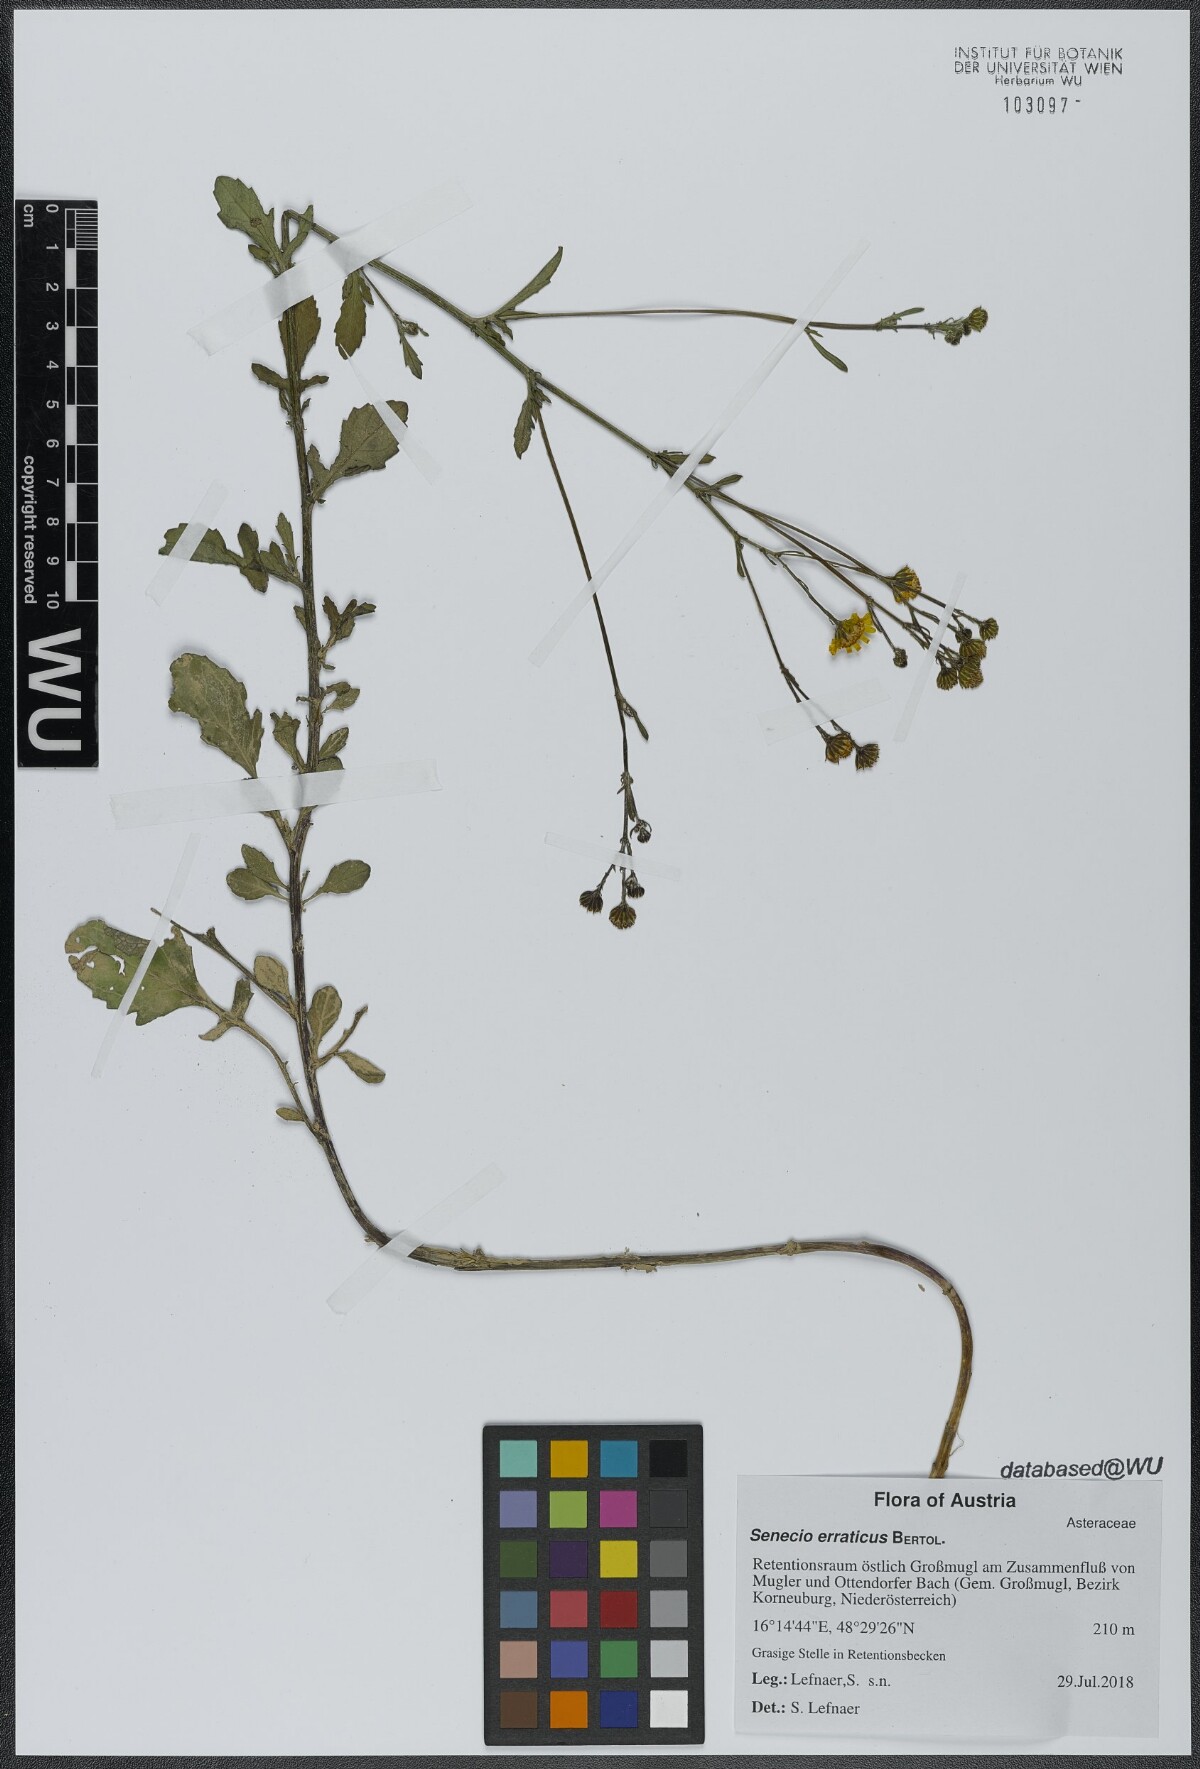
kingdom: Plantae
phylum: Tracheophyta
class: Magnoliopsida
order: Asterales
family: Asteraceae
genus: Jacobaea
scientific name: Jacobaea erratica
